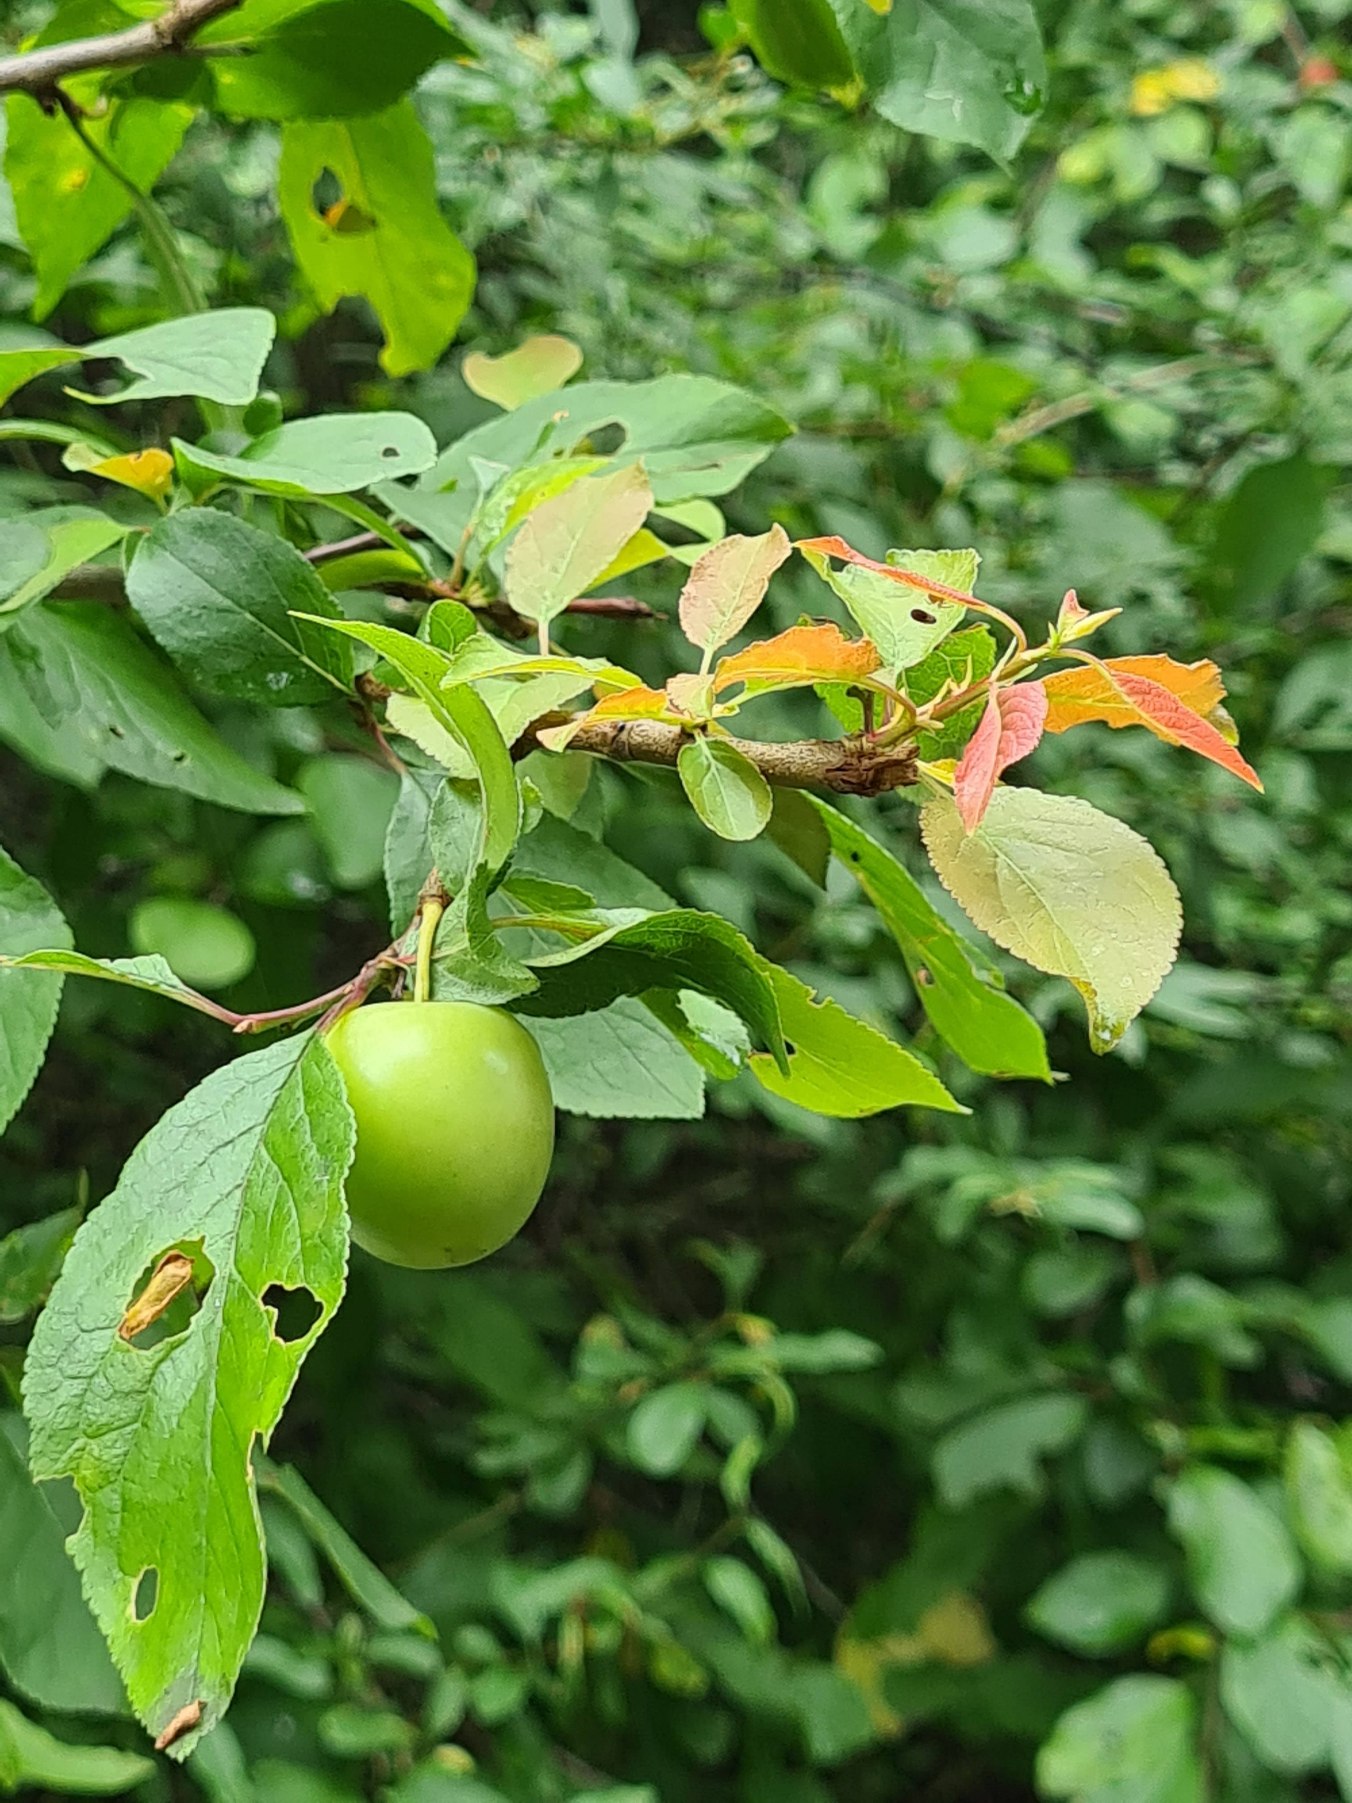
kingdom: Plantae
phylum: Tracheophyta
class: Magnoliopsida
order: Rosales
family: Rosaceae
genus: Prunus
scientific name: Prunus cerasifera
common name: Mirabel
